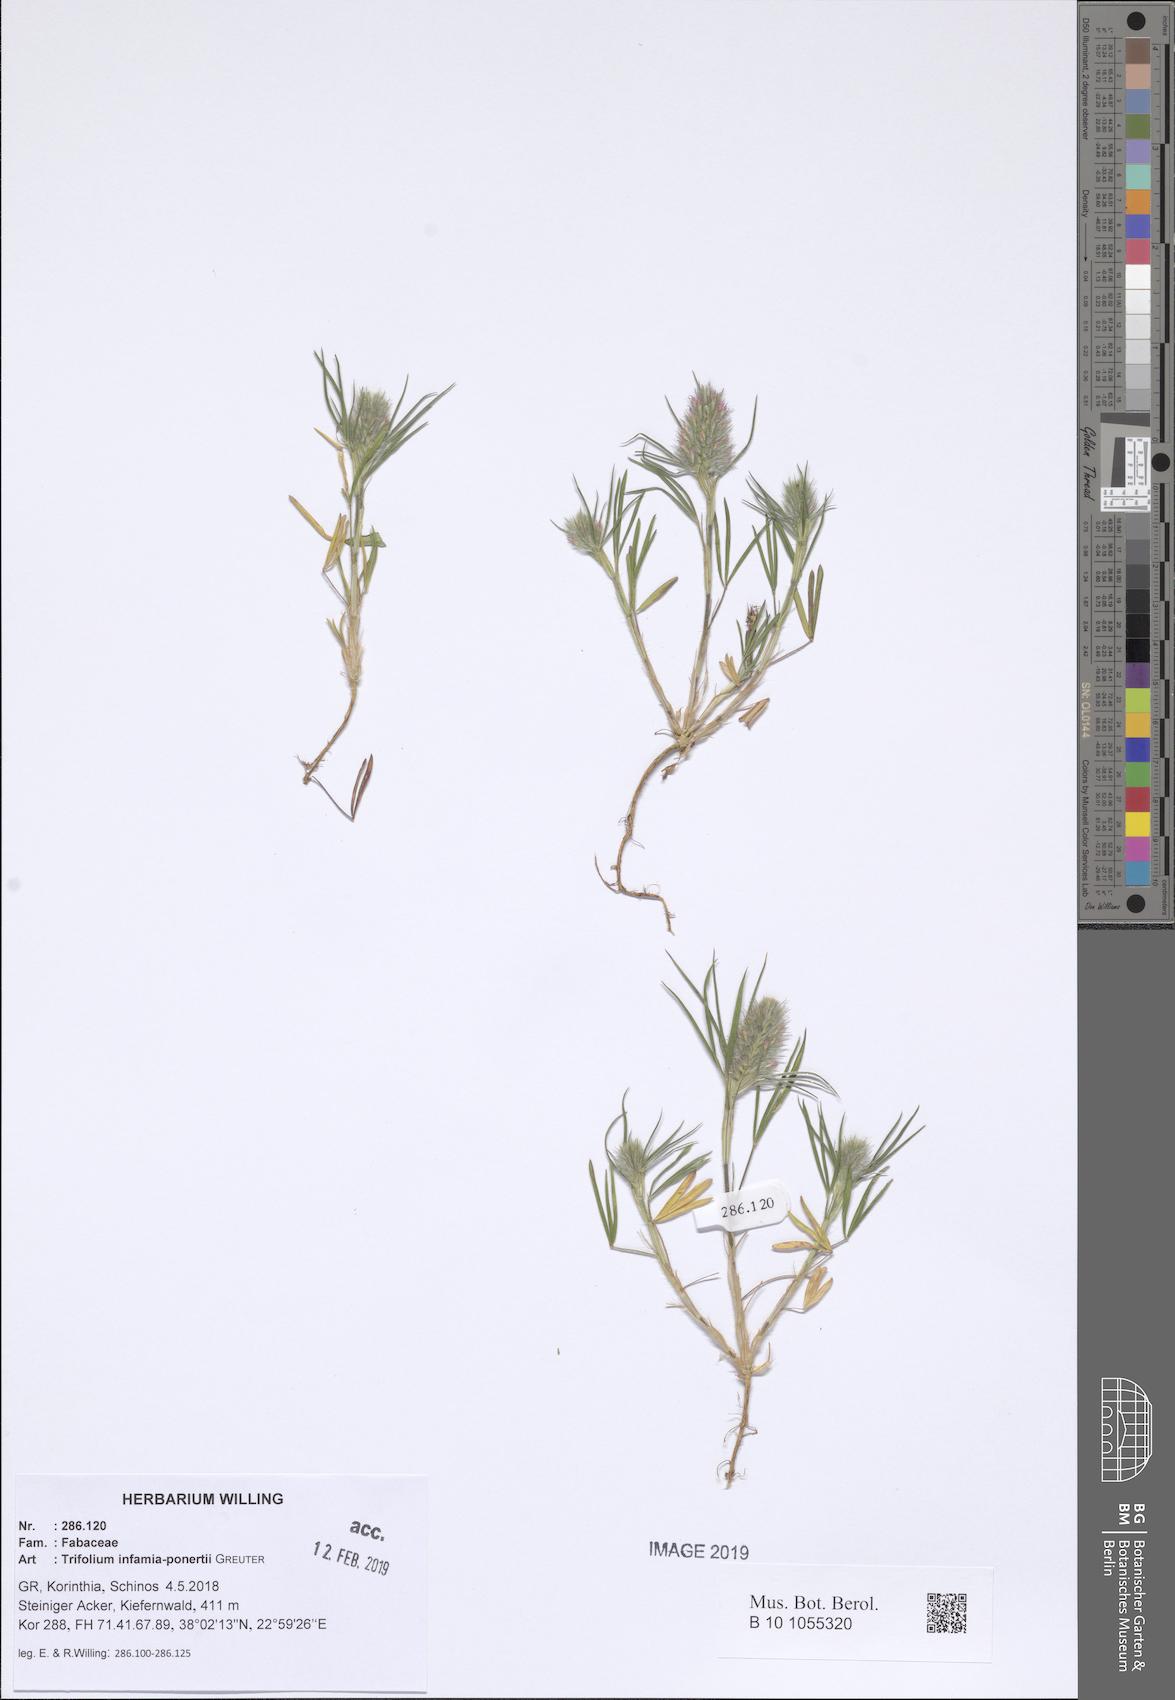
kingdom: Plantae
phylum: Tracheophyta
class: Magnoliopsida
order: Fabales
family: Fabaceae
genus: Trifolium
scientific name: Trifolium infamia-ponertii
